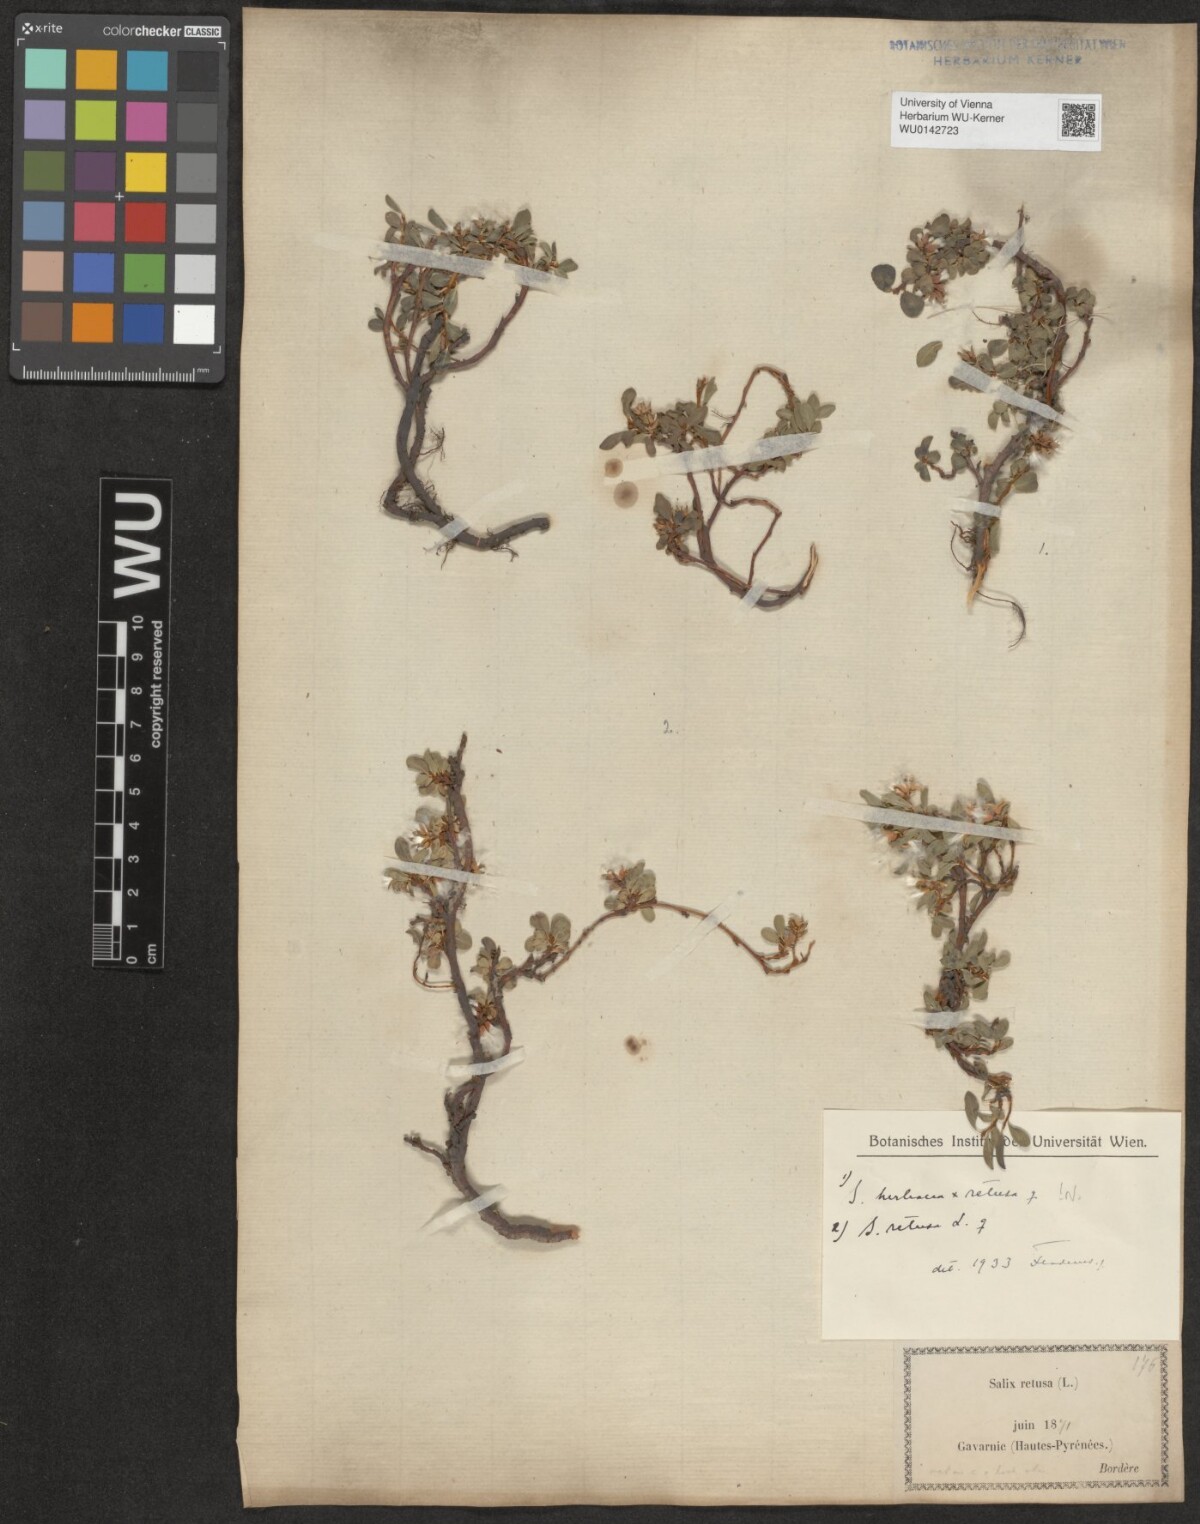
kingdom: Plantae
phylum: Tracheophyta
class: Magnoliopsida
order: Malpighiales
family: Salicaceae
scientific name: Salicaceae
